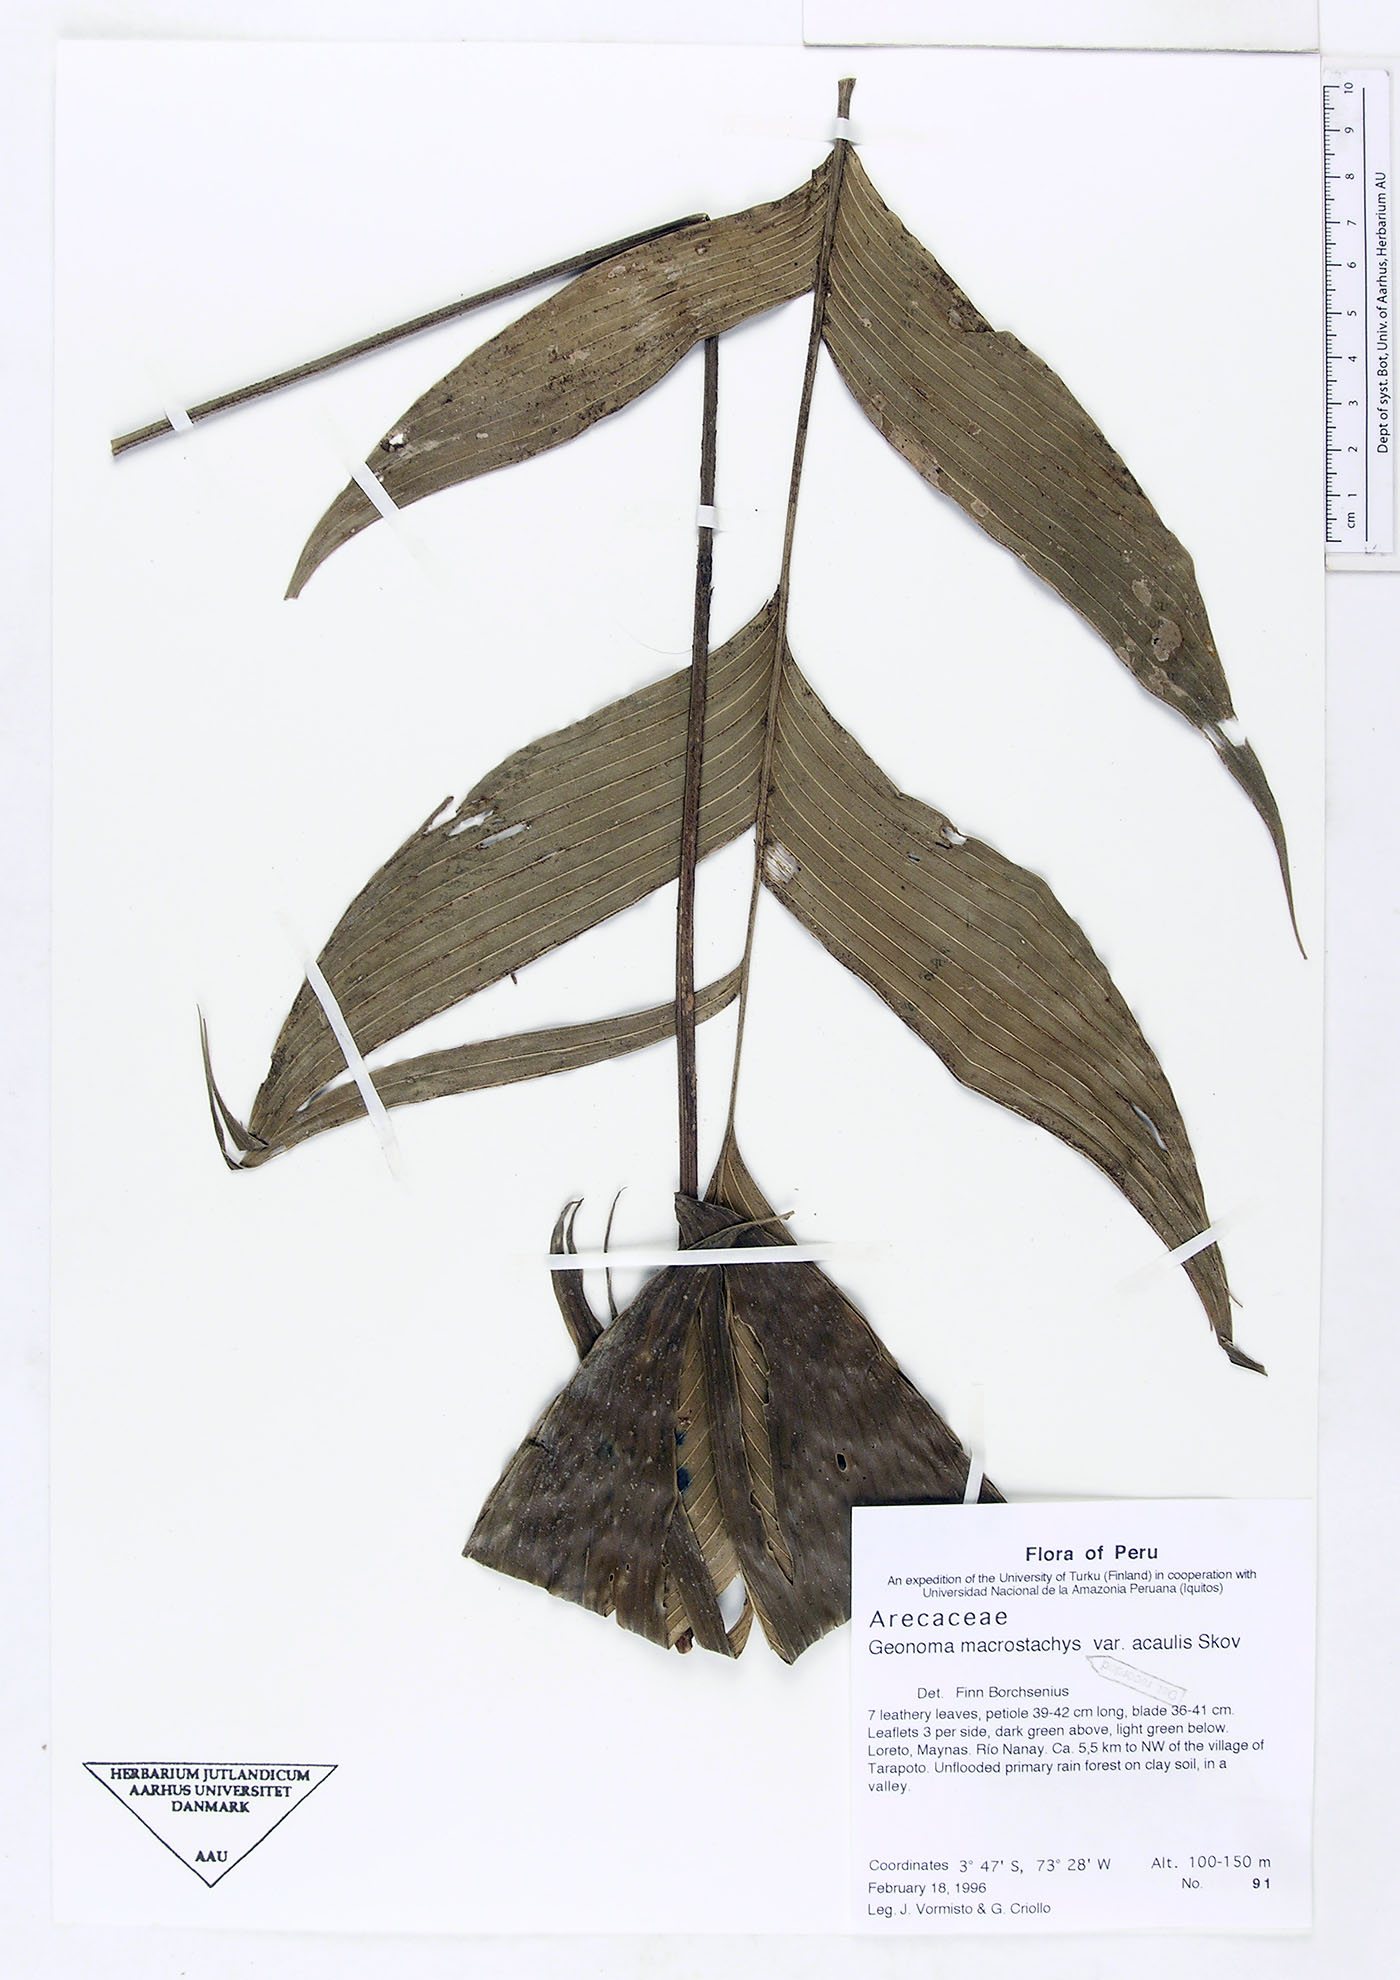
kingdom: Plantae
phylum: Tracheophyta
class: Liliopsida
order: Arecales
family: Arecaceae
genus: Geonoma
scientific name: Geonoma macrostachys
